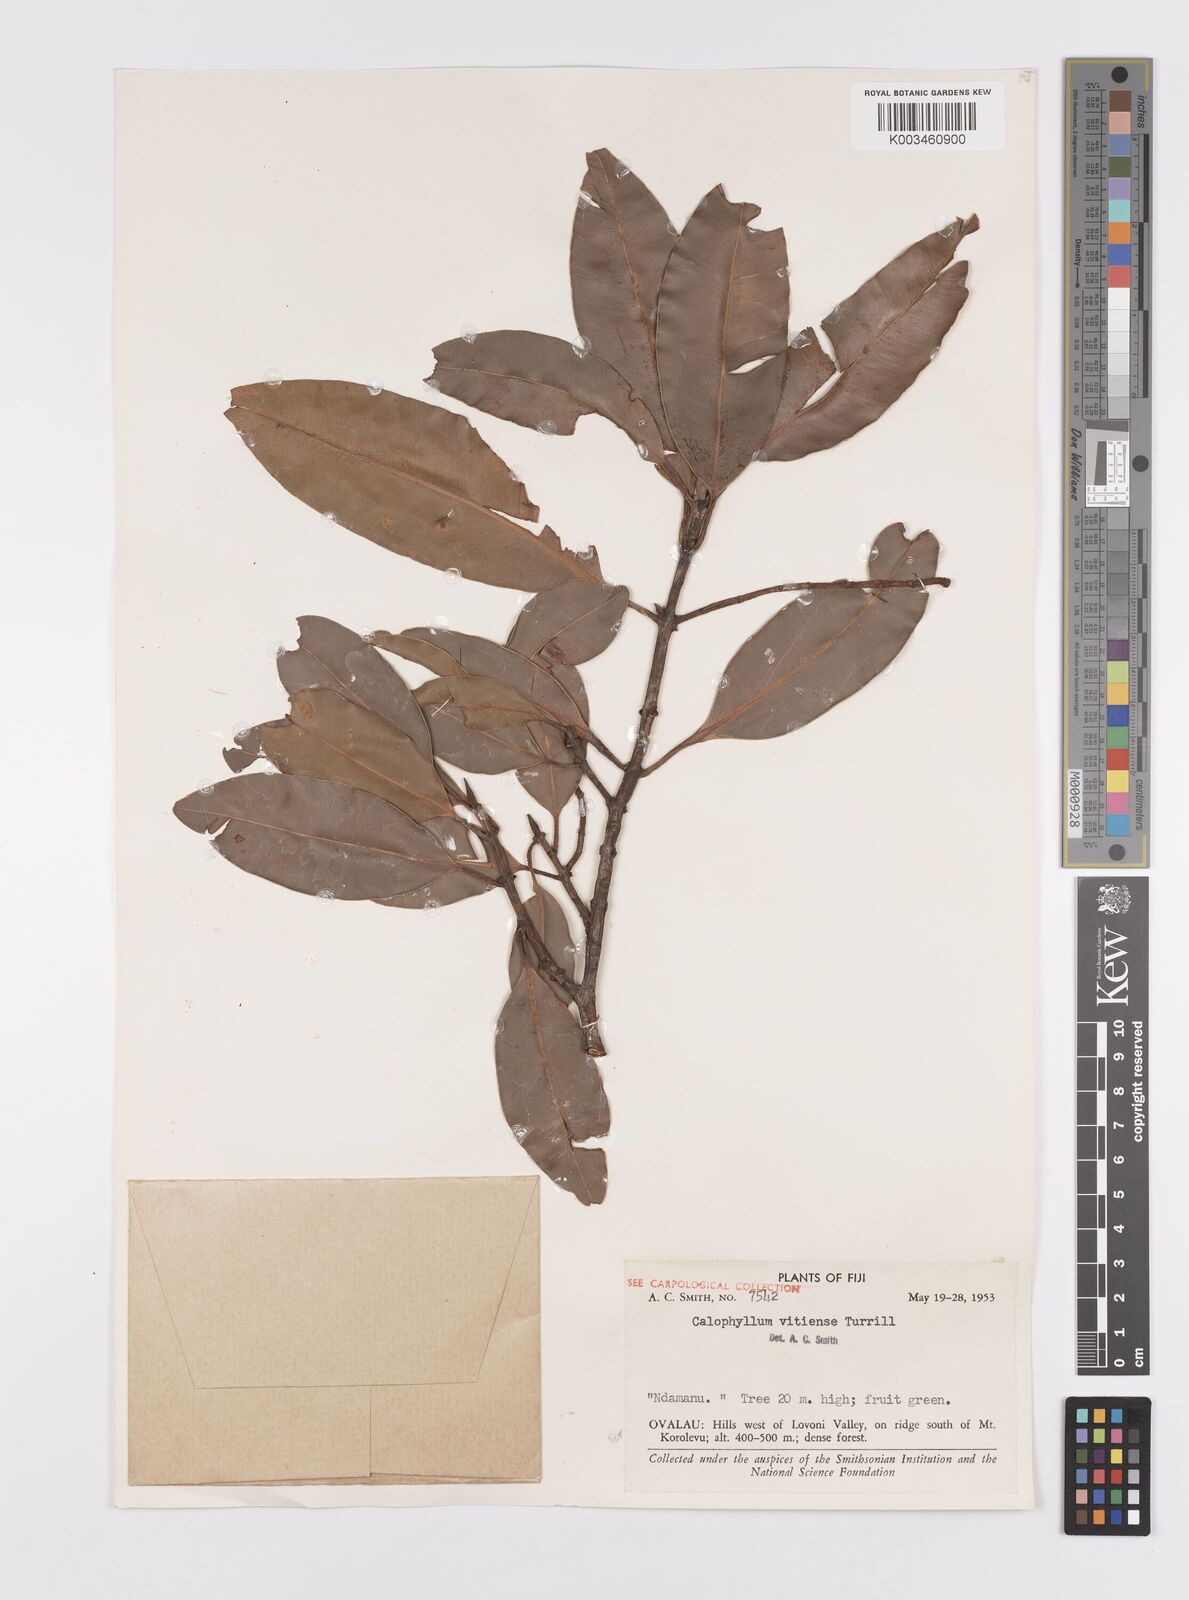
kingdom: Plantae
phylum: Tracheophyta
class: Magnoliopsida
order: Malpighiales
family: Calophyllaceae
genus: Calophyllum
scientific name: Calophyllum vitiense
